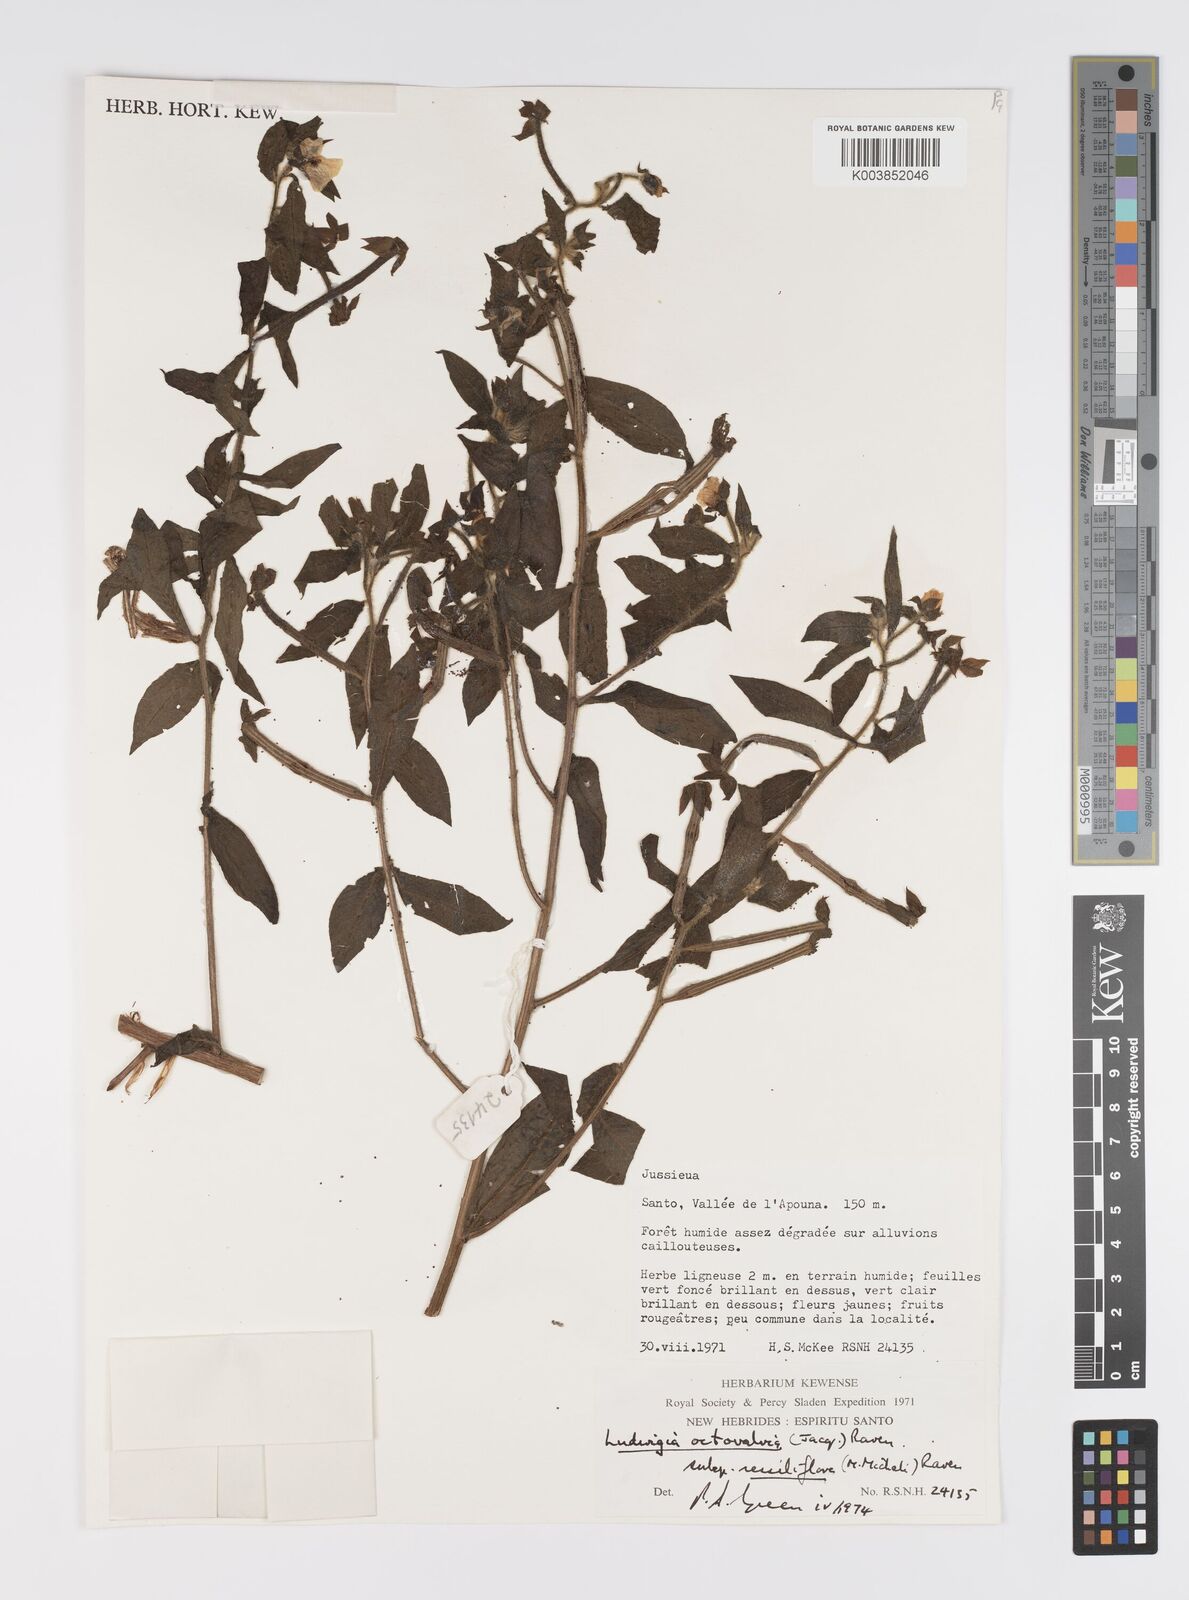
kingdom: Plantae
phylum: Tracheophyta
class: Magnoliopsida
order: Myrtales
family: Onagraceae
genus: Ludwigia
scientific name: Ludwigia octovalvis
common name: Water-primrose
